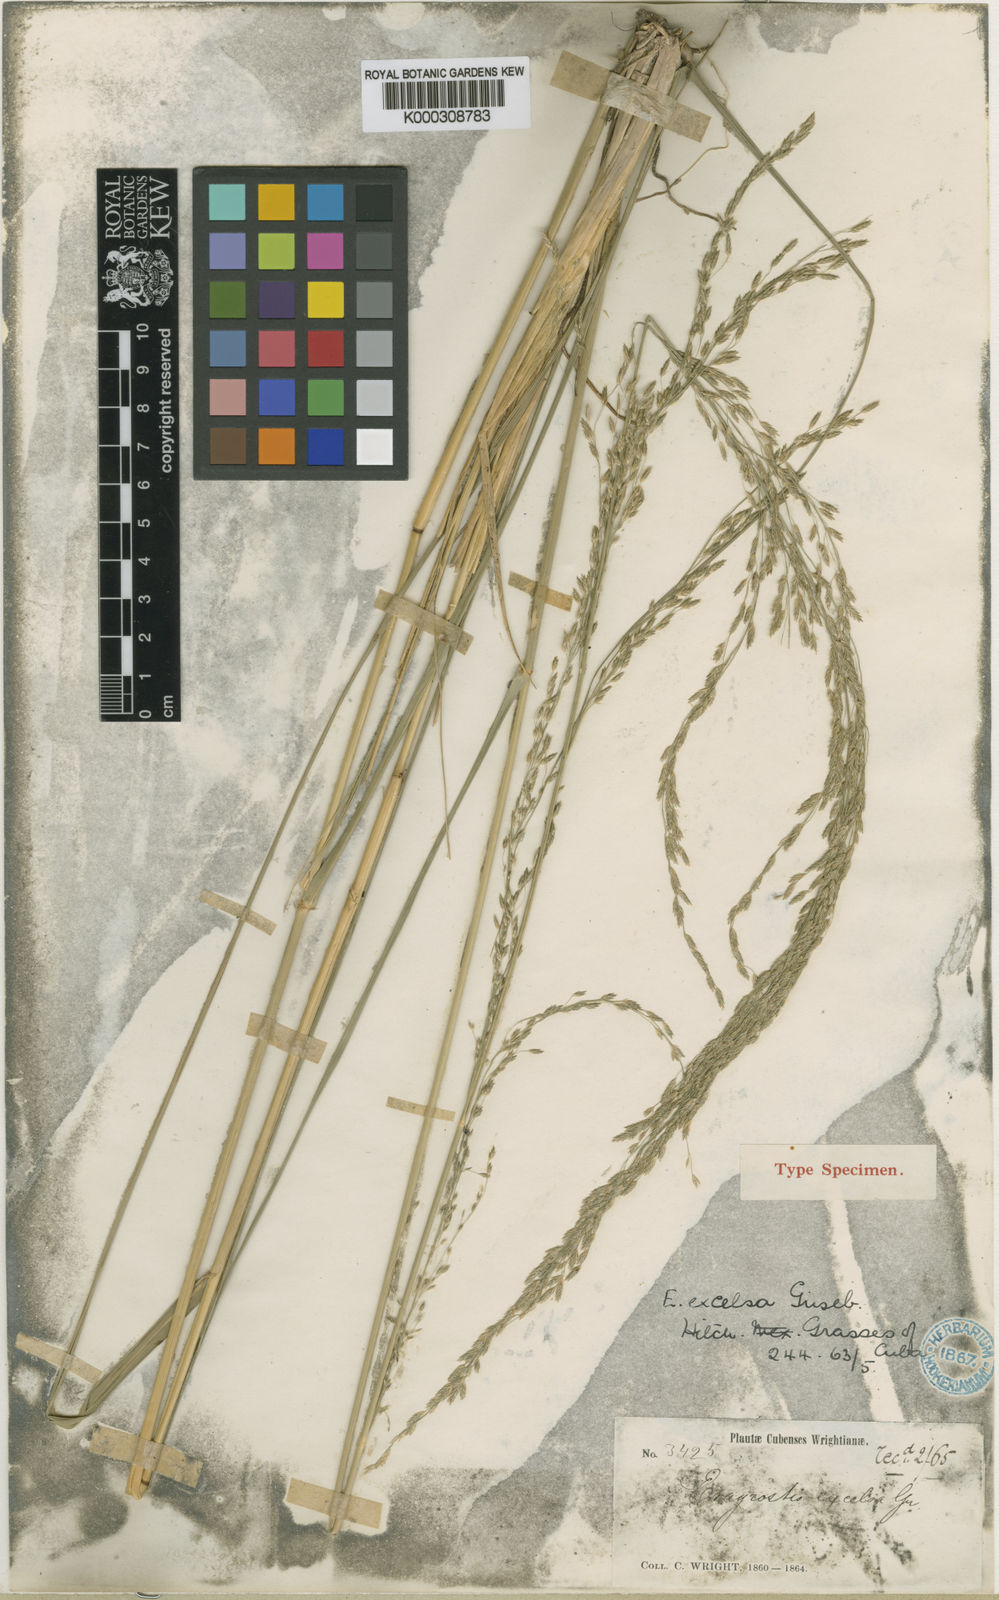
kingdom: Plantae
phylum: Tracheophyta
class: Liliopsida
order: Poales
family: Poaceae
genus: Eragrostis
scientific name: Eragrostis prolifera
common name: Dominican lovegrass
